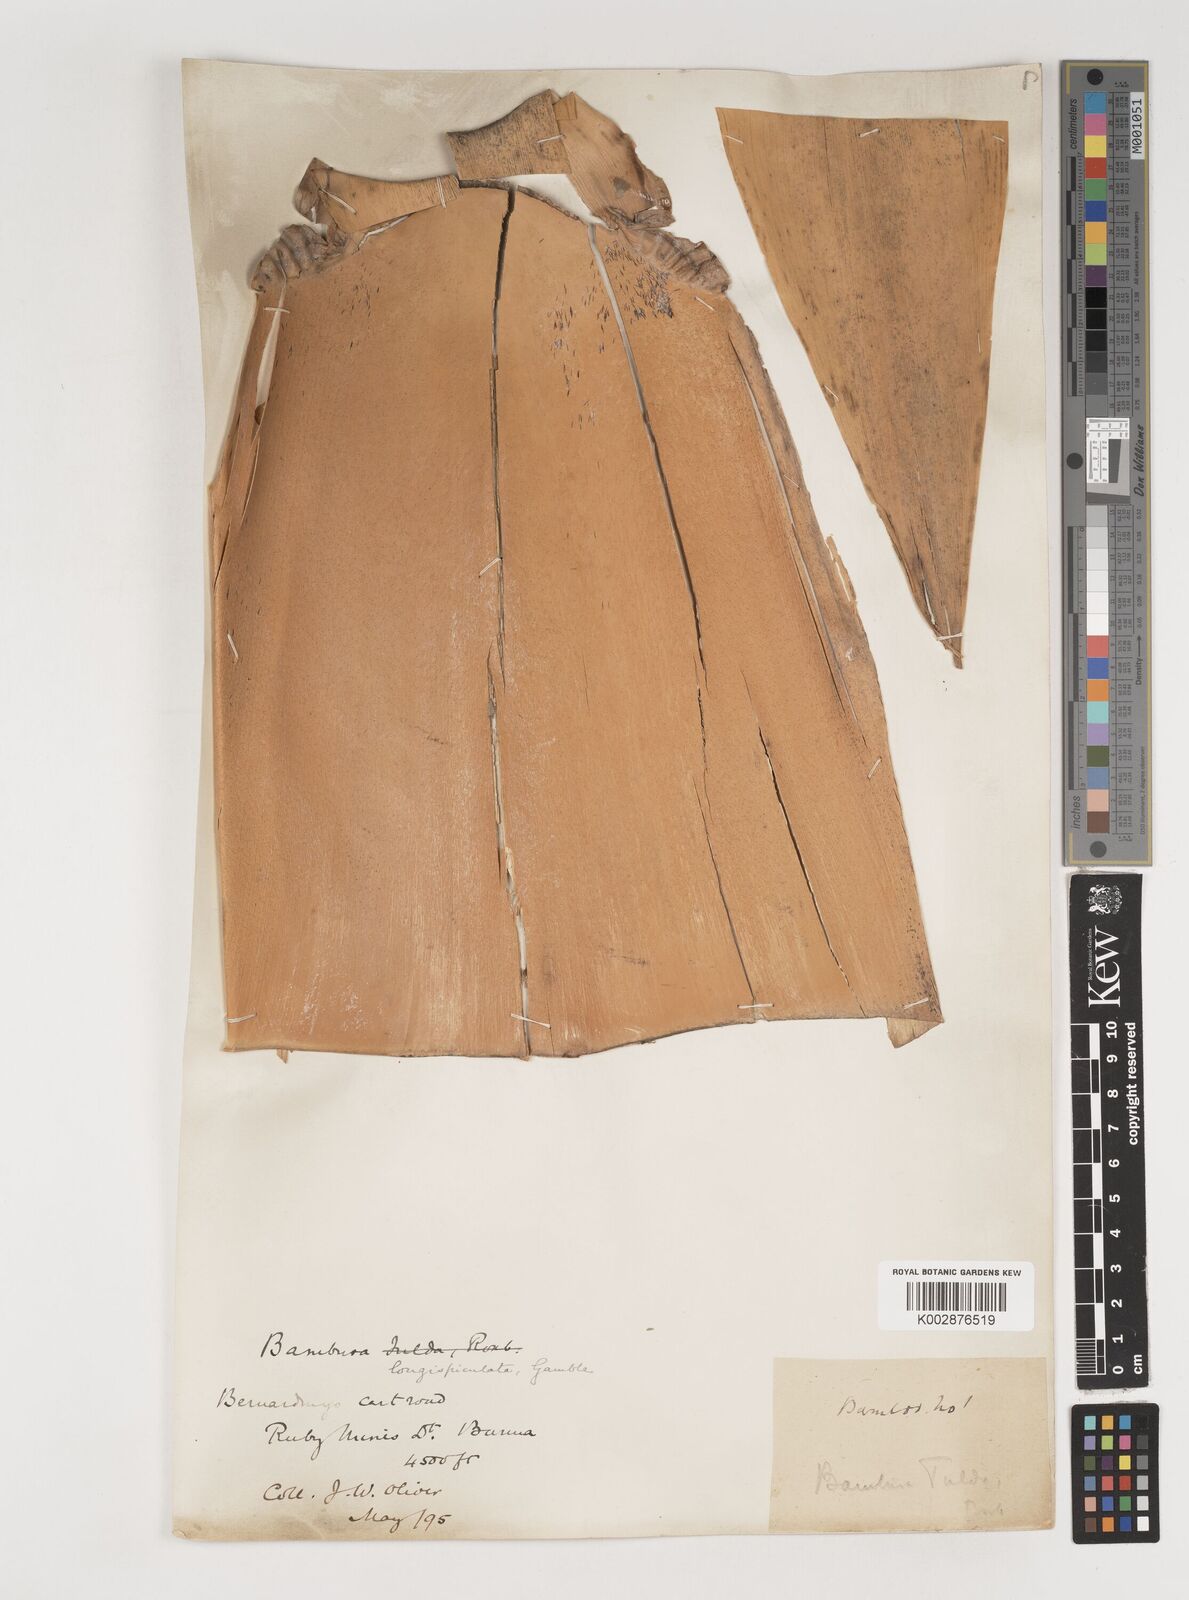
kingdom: Plantae
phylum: Tracheophyta
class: Liliopsida
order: Poales
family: Poaceae
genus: Bambusa
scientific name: Bambusa longispiculata
